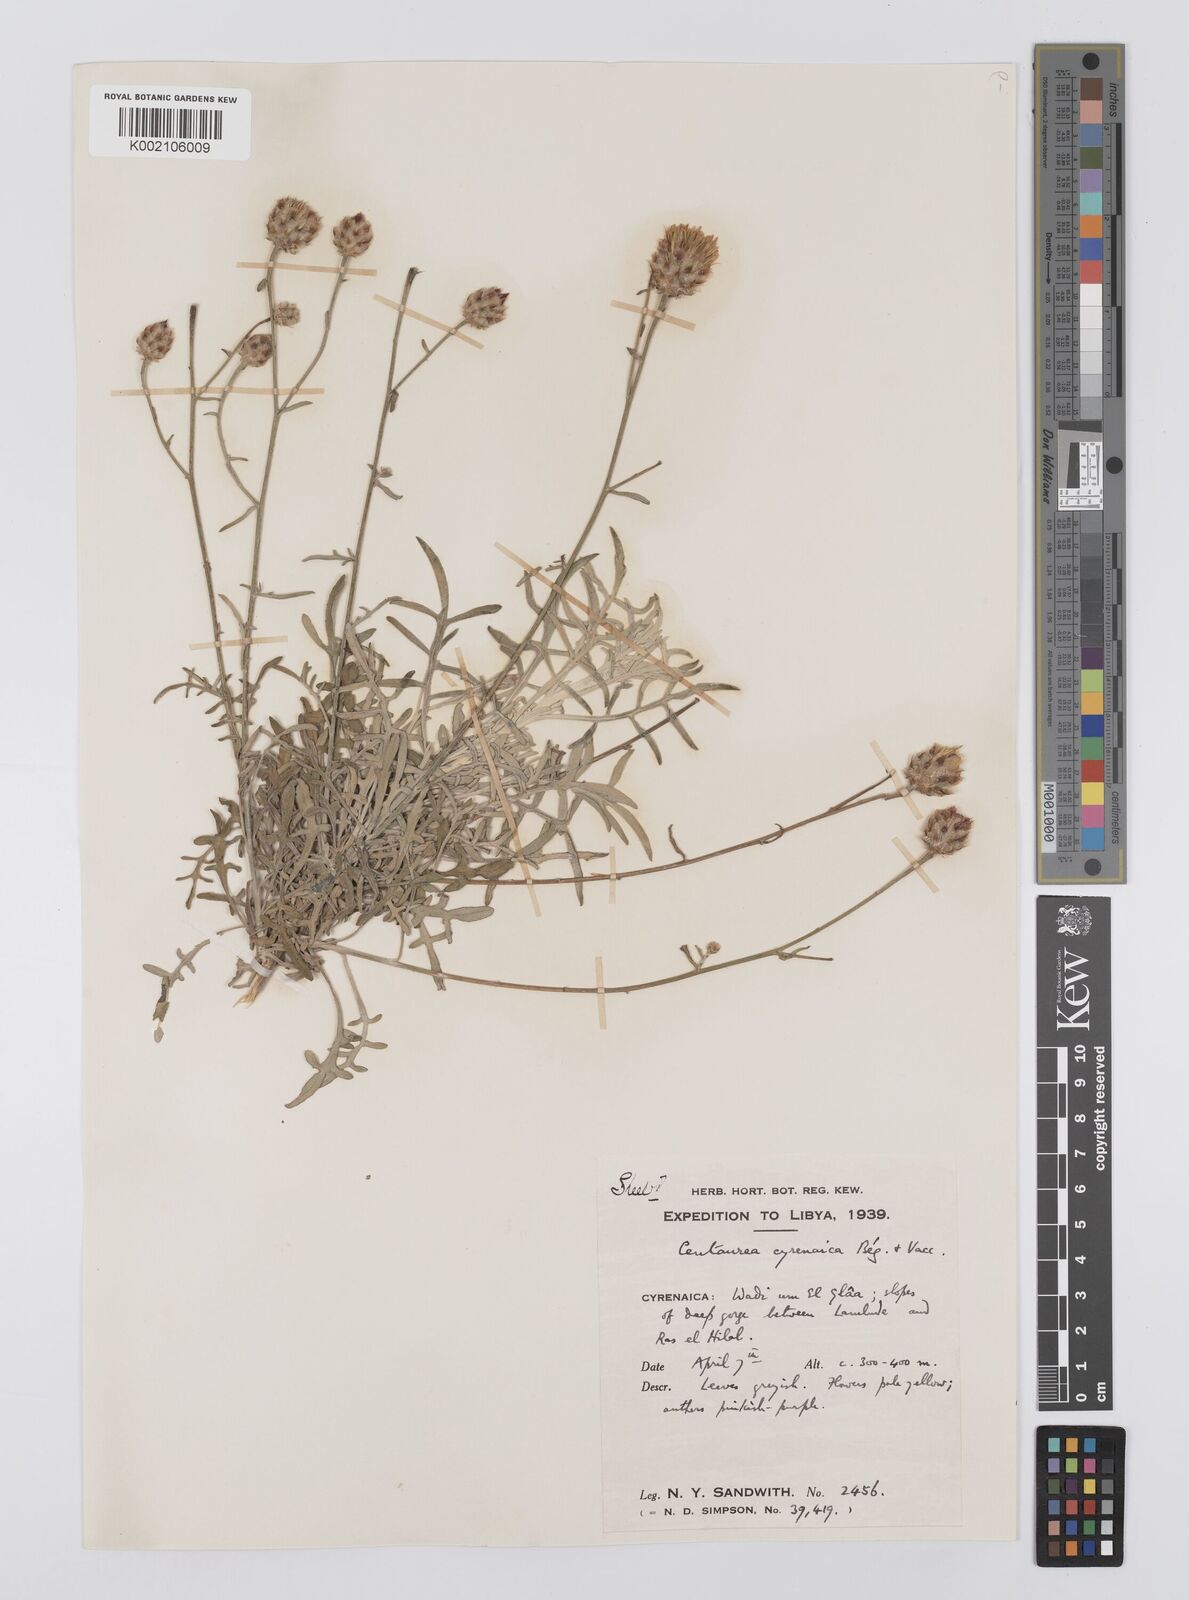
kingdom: Plantae
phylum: Tracheophyta
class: Magnoliopsida
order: Asterales
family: Asteraceae
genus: Centaurea
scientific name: Centaurea cyrenaica
